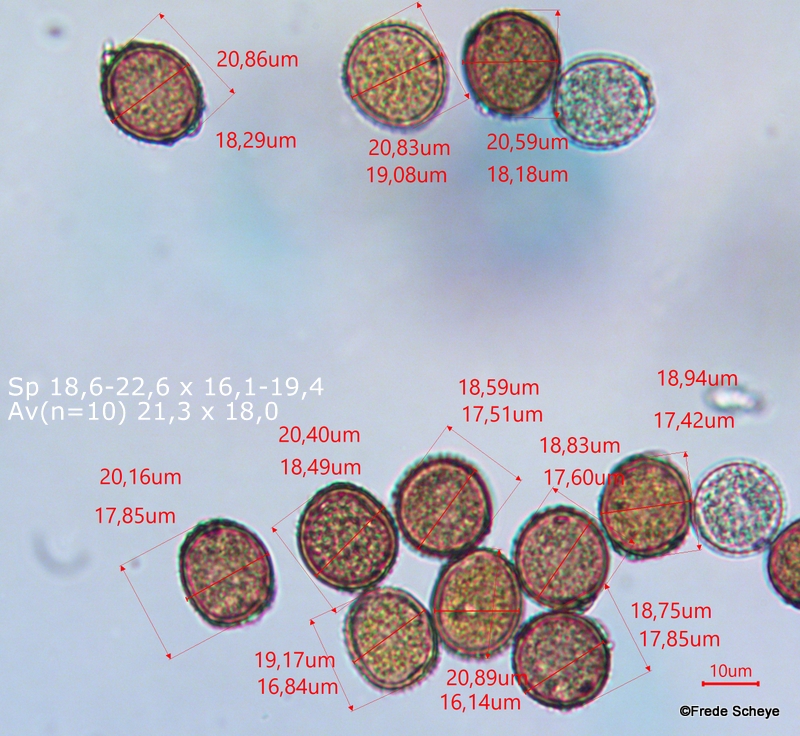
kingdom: Fungi
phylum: Basidiomycota
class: Pucciniomycetes
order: Pucciniales
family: Pucciniaceae
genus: Puccinia
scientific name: Puccinia lapsanae
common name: Nipplewort rust
